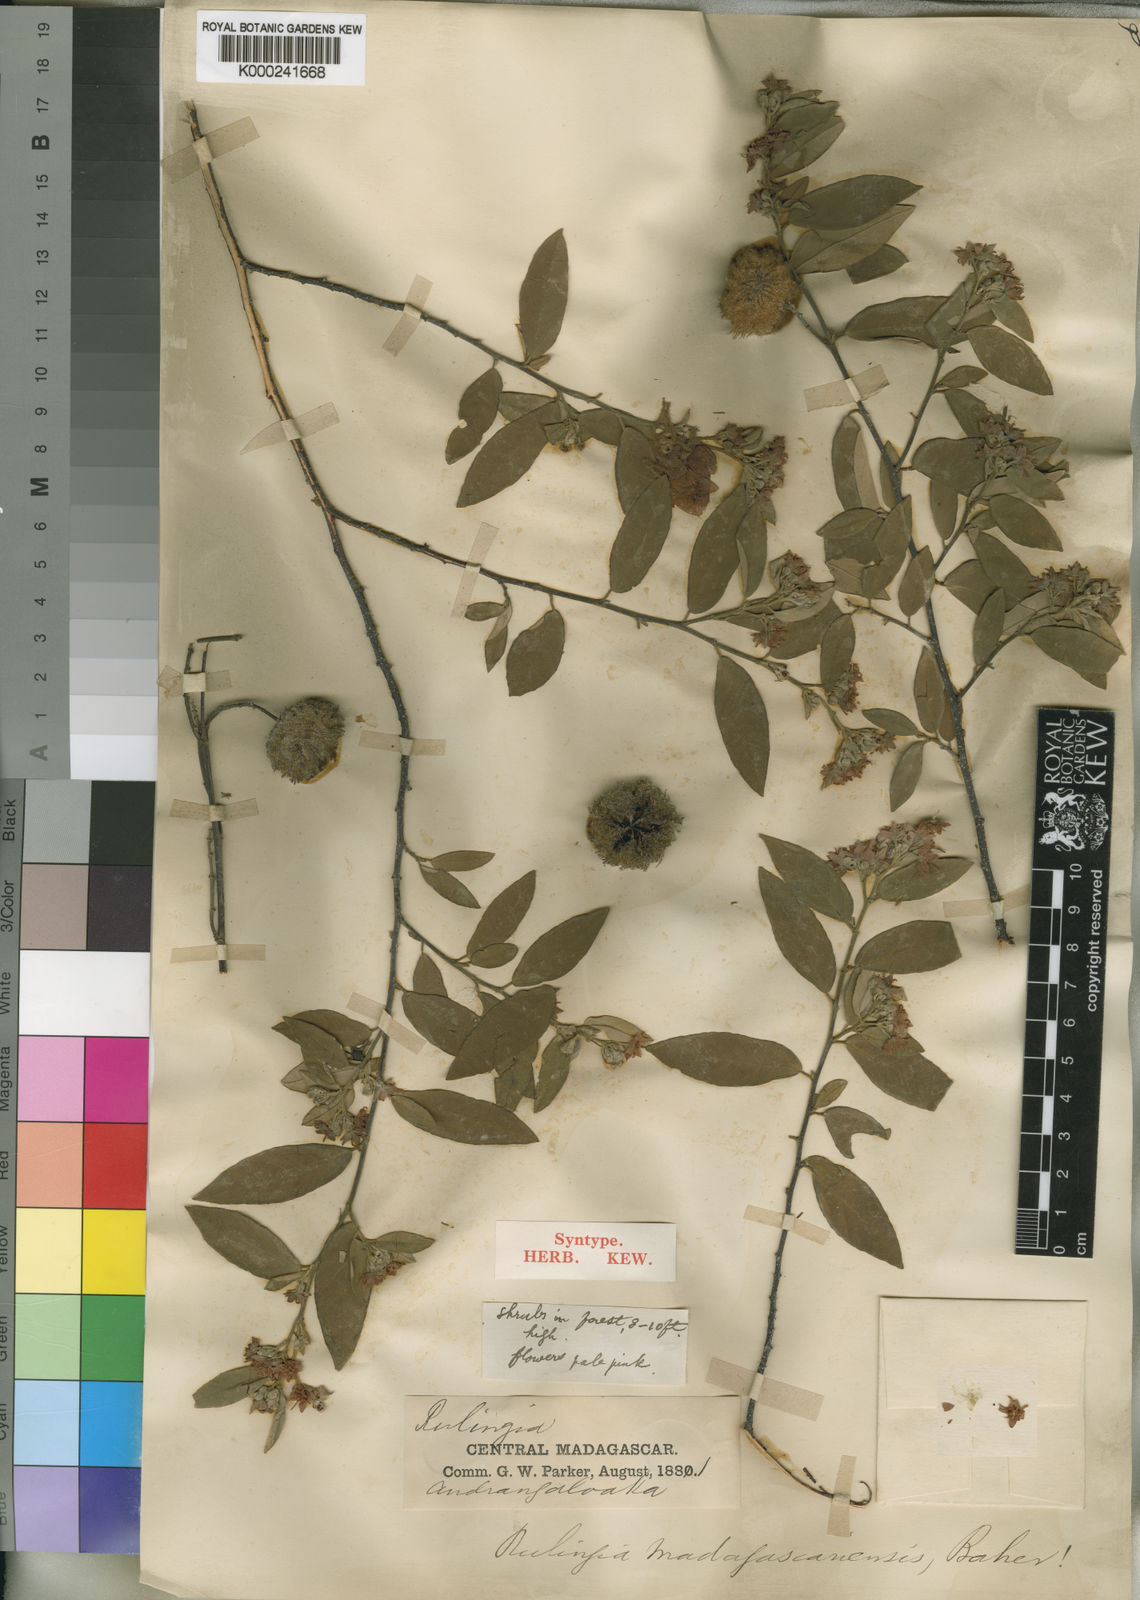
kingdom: Plantae
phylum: Tracheophyta
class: Magnoliopsida
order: Malvales
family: Malvaceae
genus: Commersonia
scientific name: Commersonia madagascariensis
